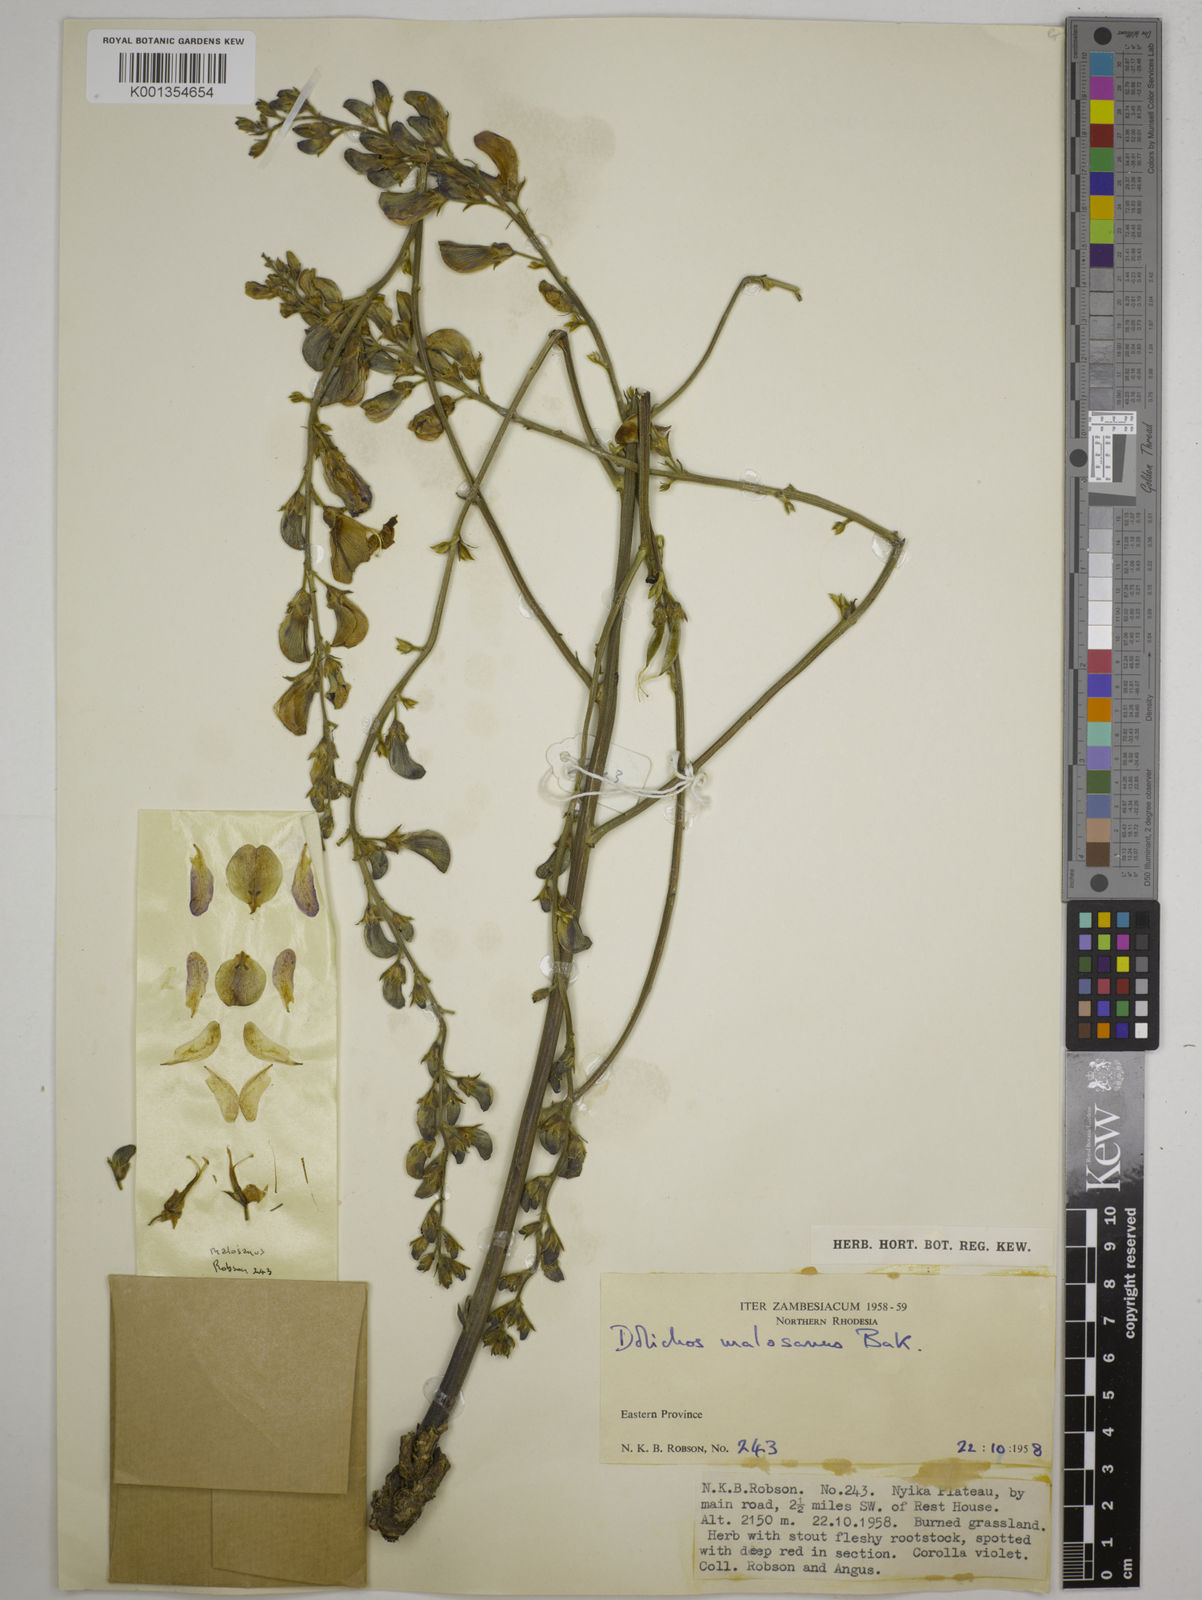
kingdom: Plantae
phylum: Tracheophyta
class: Magnoliopsida
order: Fabales
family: Fabaceae
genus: Dolichos
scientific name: Dolichos kilimandscharicus
